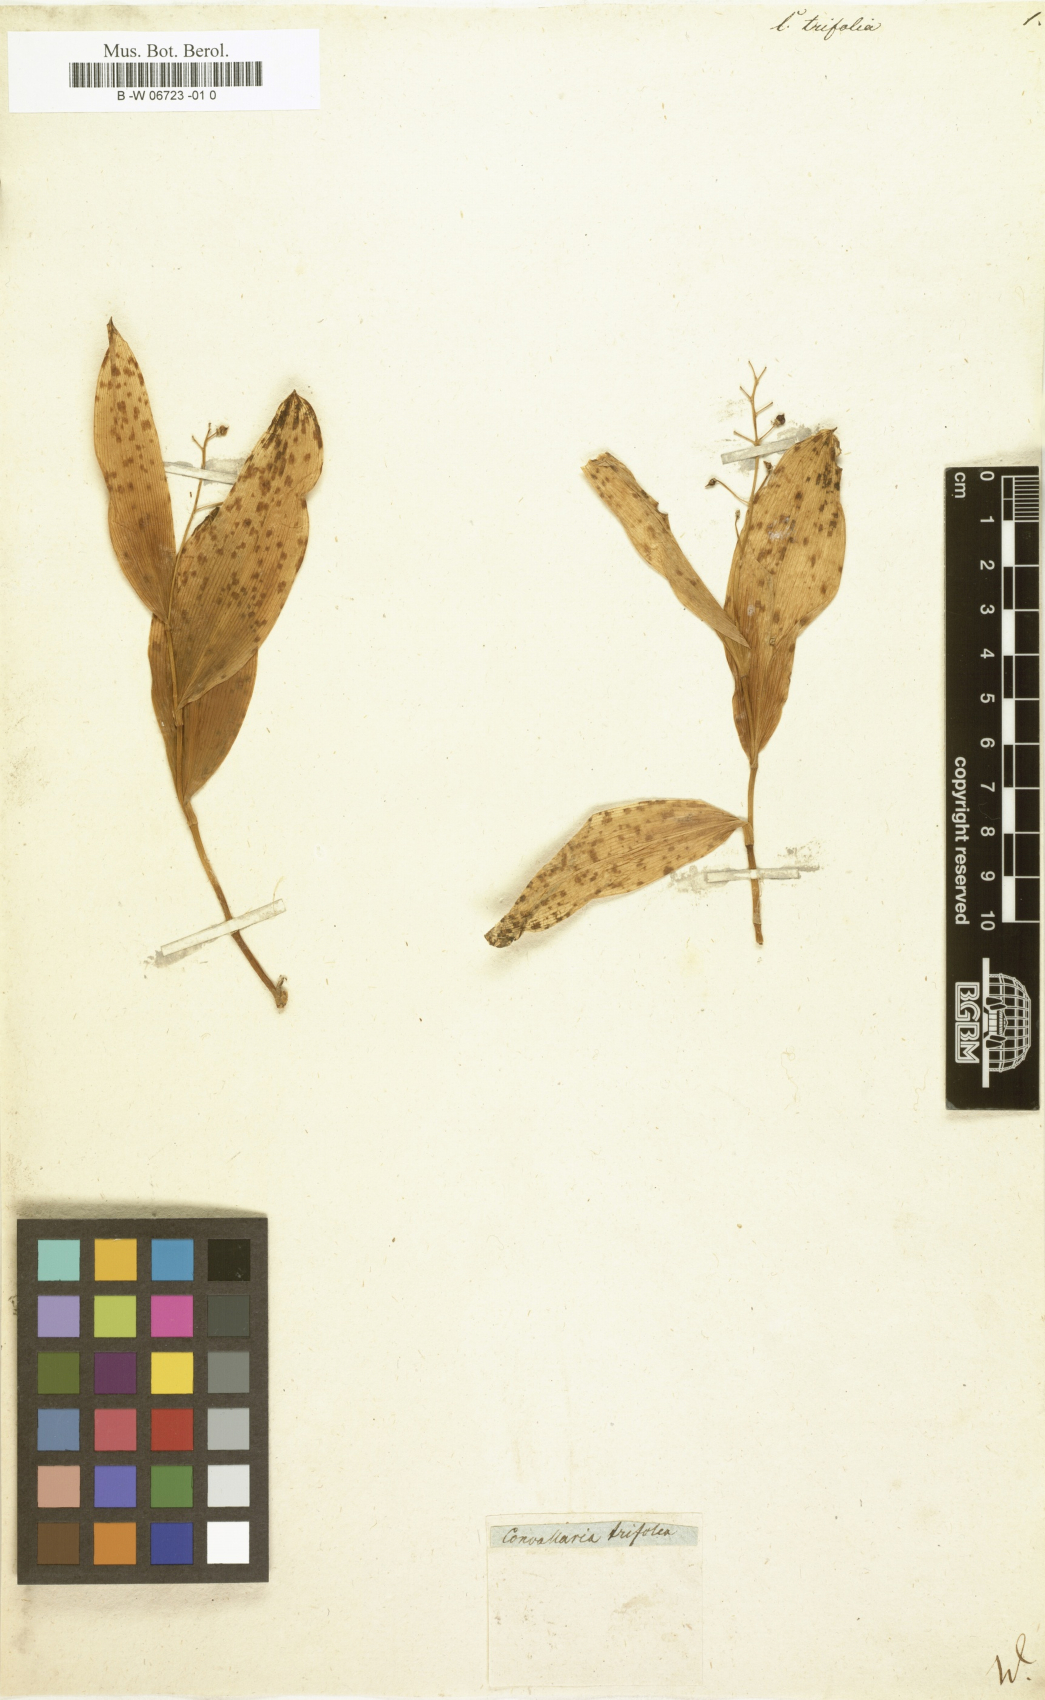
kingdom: Plantae
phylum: Tracheophyta
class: Liliopsida
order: Asparagales
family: Asparagaceae
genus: Maianthemum
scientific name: Maianthemum trifolium
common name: Swamp false solomon's seal
